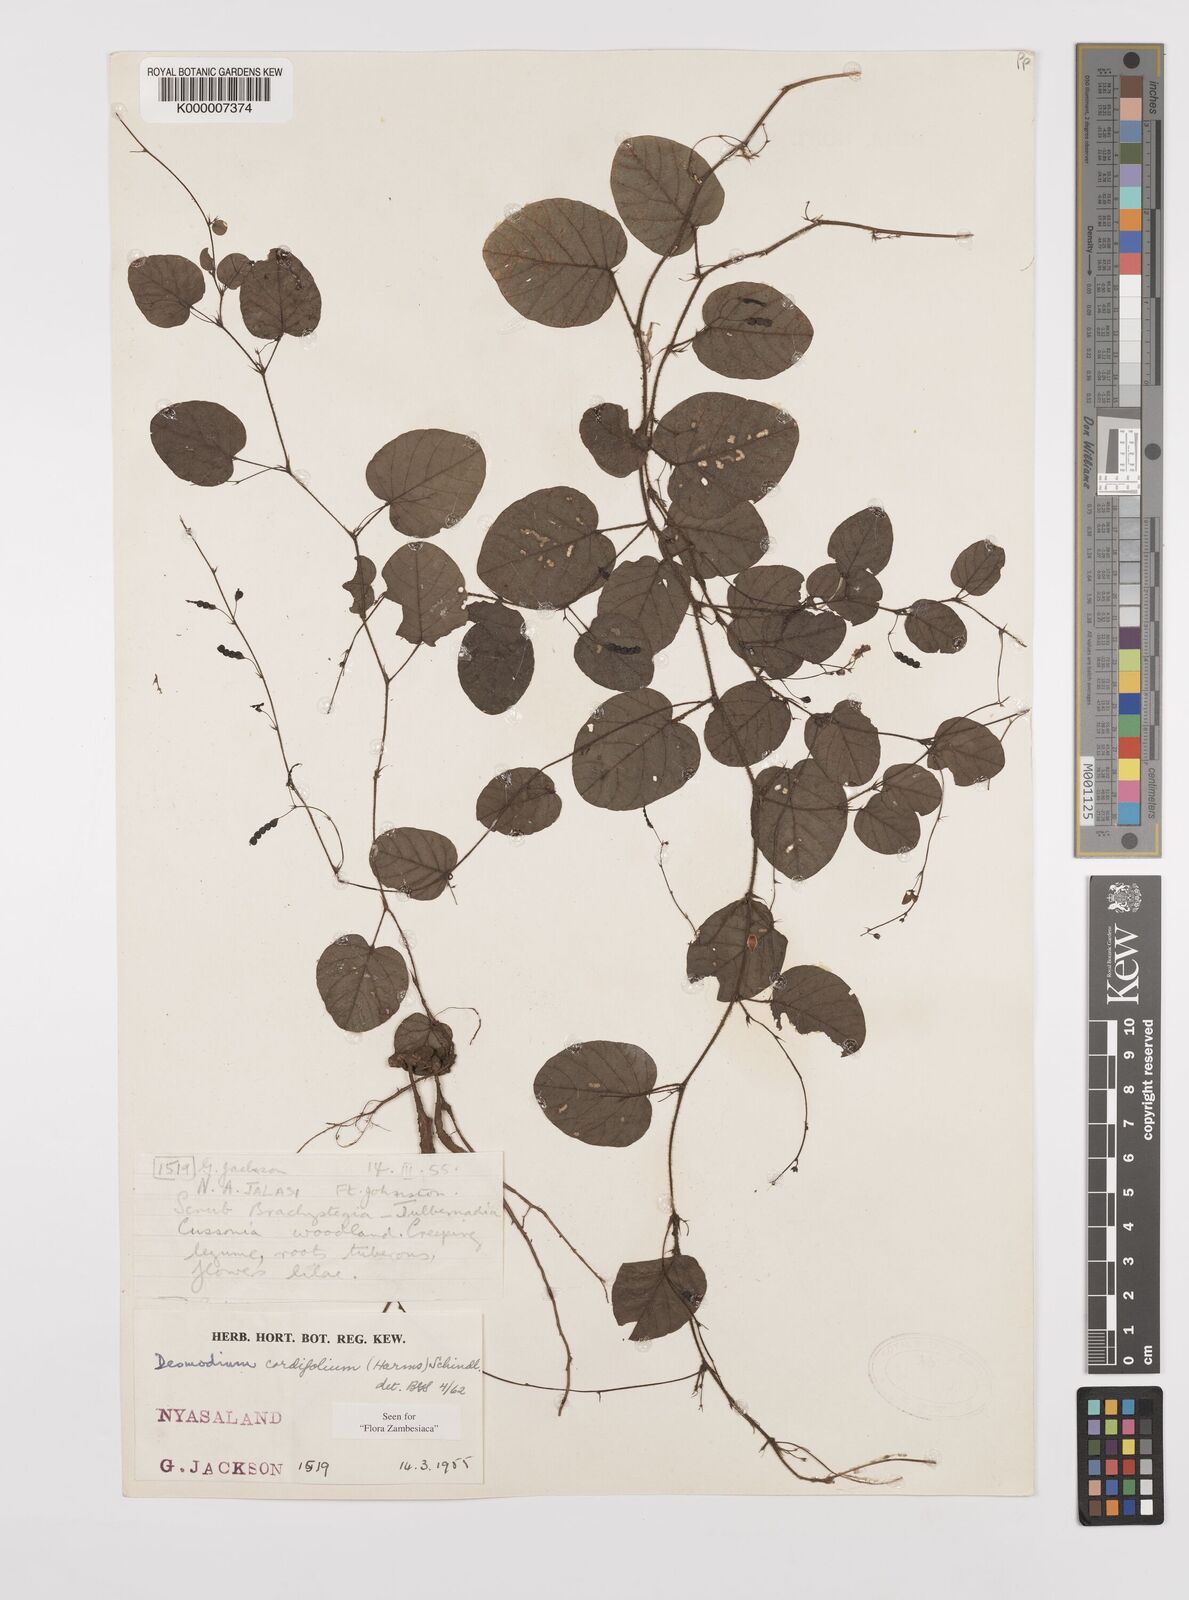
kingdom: Plantae
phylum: Tracheophyta
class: Magnoliopsida
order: Fabales
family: Fabaceae
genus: Grona
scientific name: Grona cordifolia
